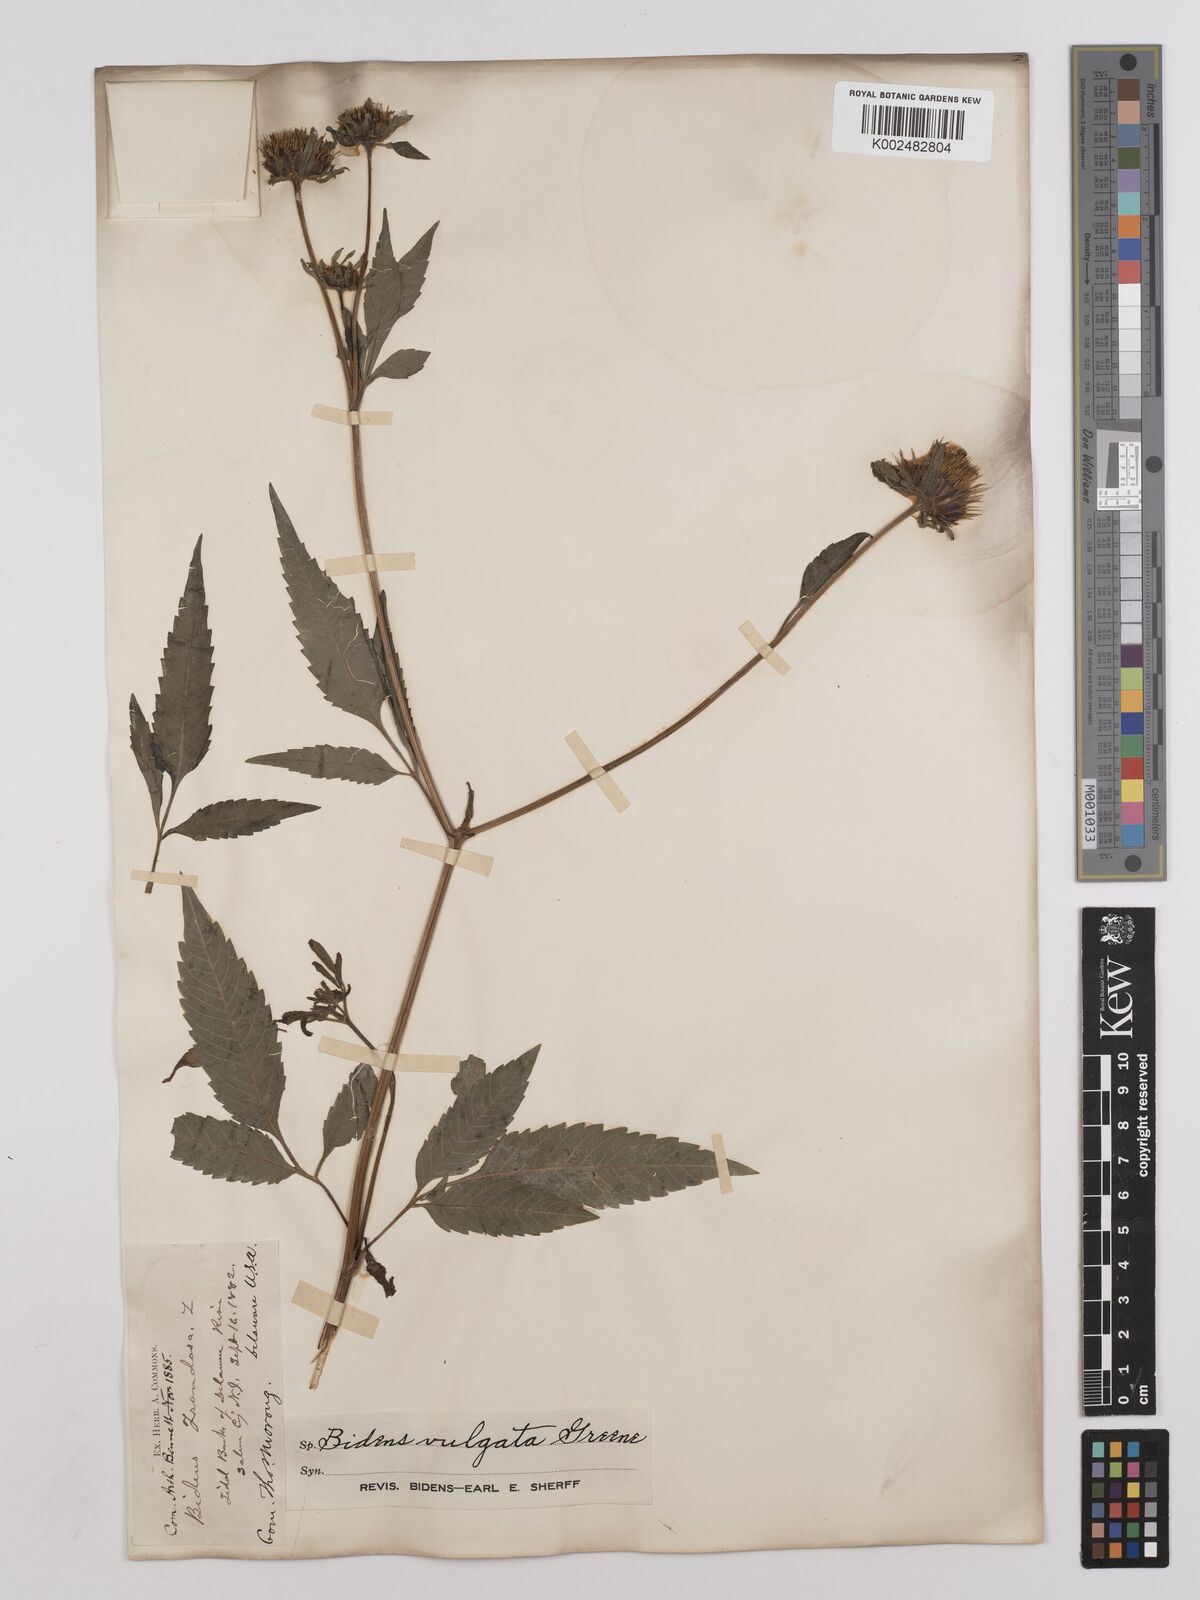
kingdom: Plantae
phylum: Tracheophyta
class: Magnoliopsida
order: Asterales
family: Asteraceae
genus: Bidens
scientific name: Bidens vulgata
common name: Tall beggarticks
